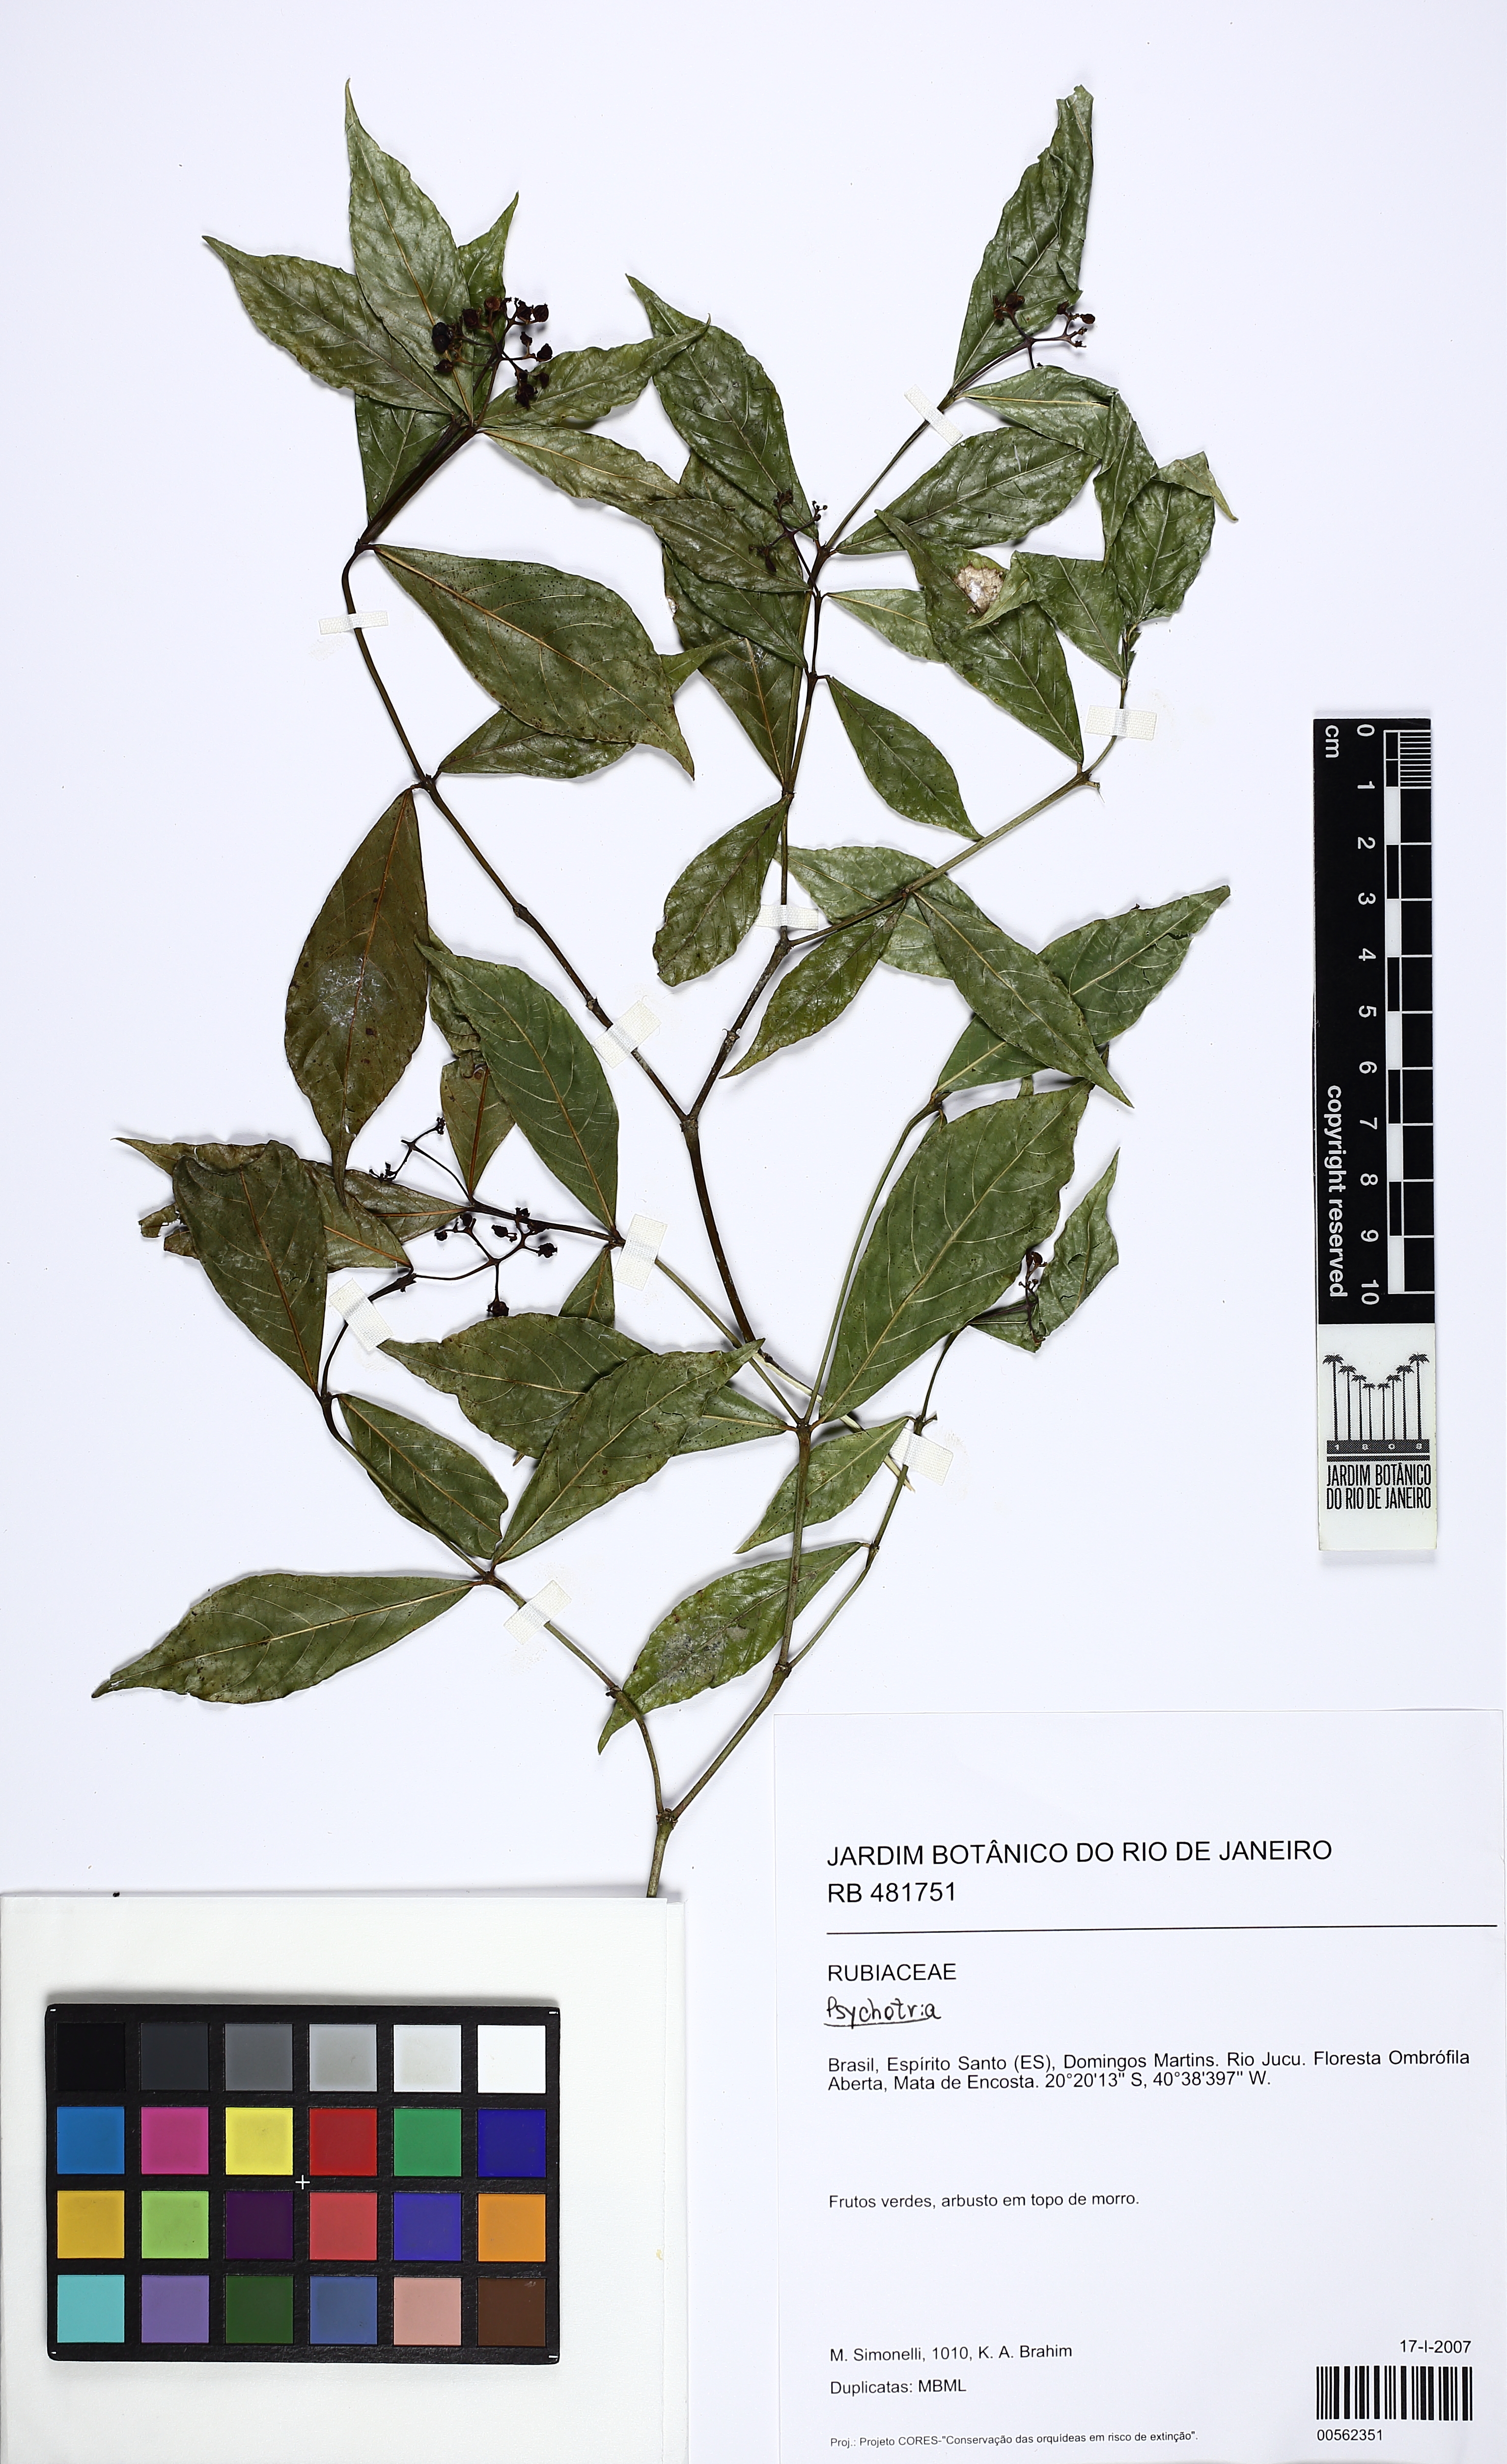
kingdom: Plantae
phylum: Tracheophyta
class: Magnoliopsida
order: Gentianales
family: Rubiaceae
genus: Palicourea
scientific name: Palicourea tenerior
